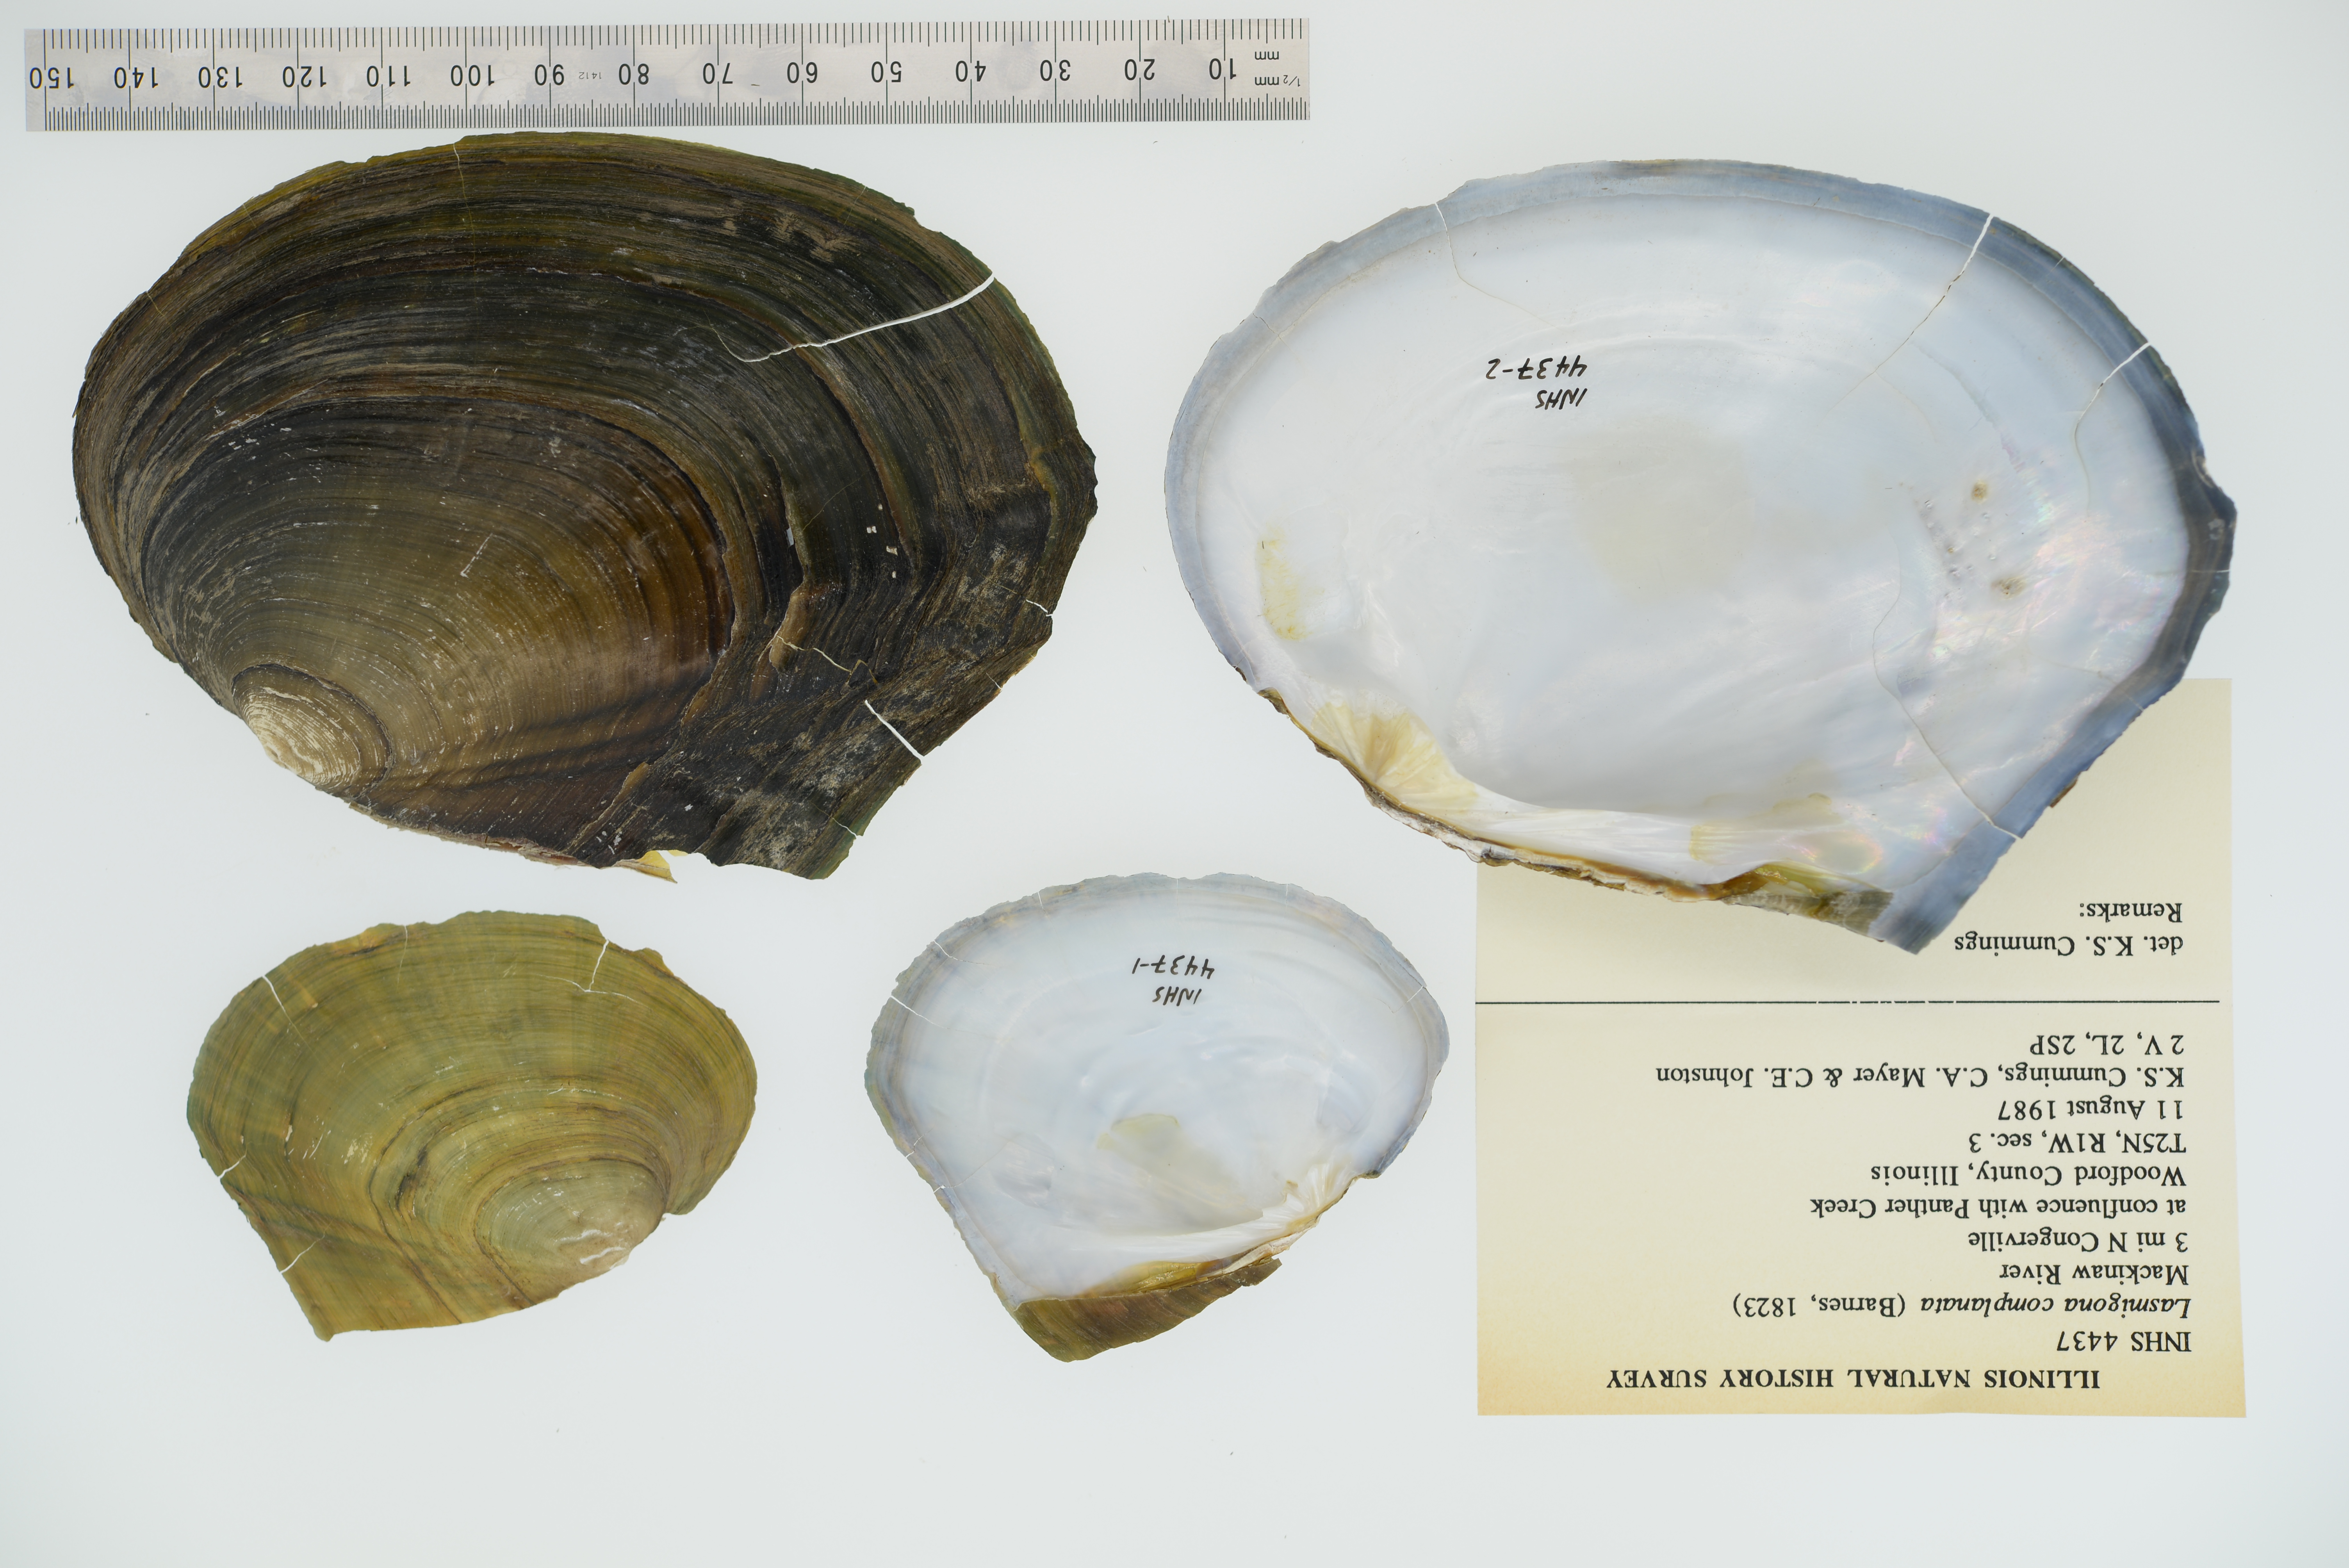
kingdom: Animalia
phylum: Mollusca
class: Bivalvia
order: Unionida
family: Unionidae
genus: Lasmigona
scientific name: Lasmigona complanata
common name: White heelsplitter
